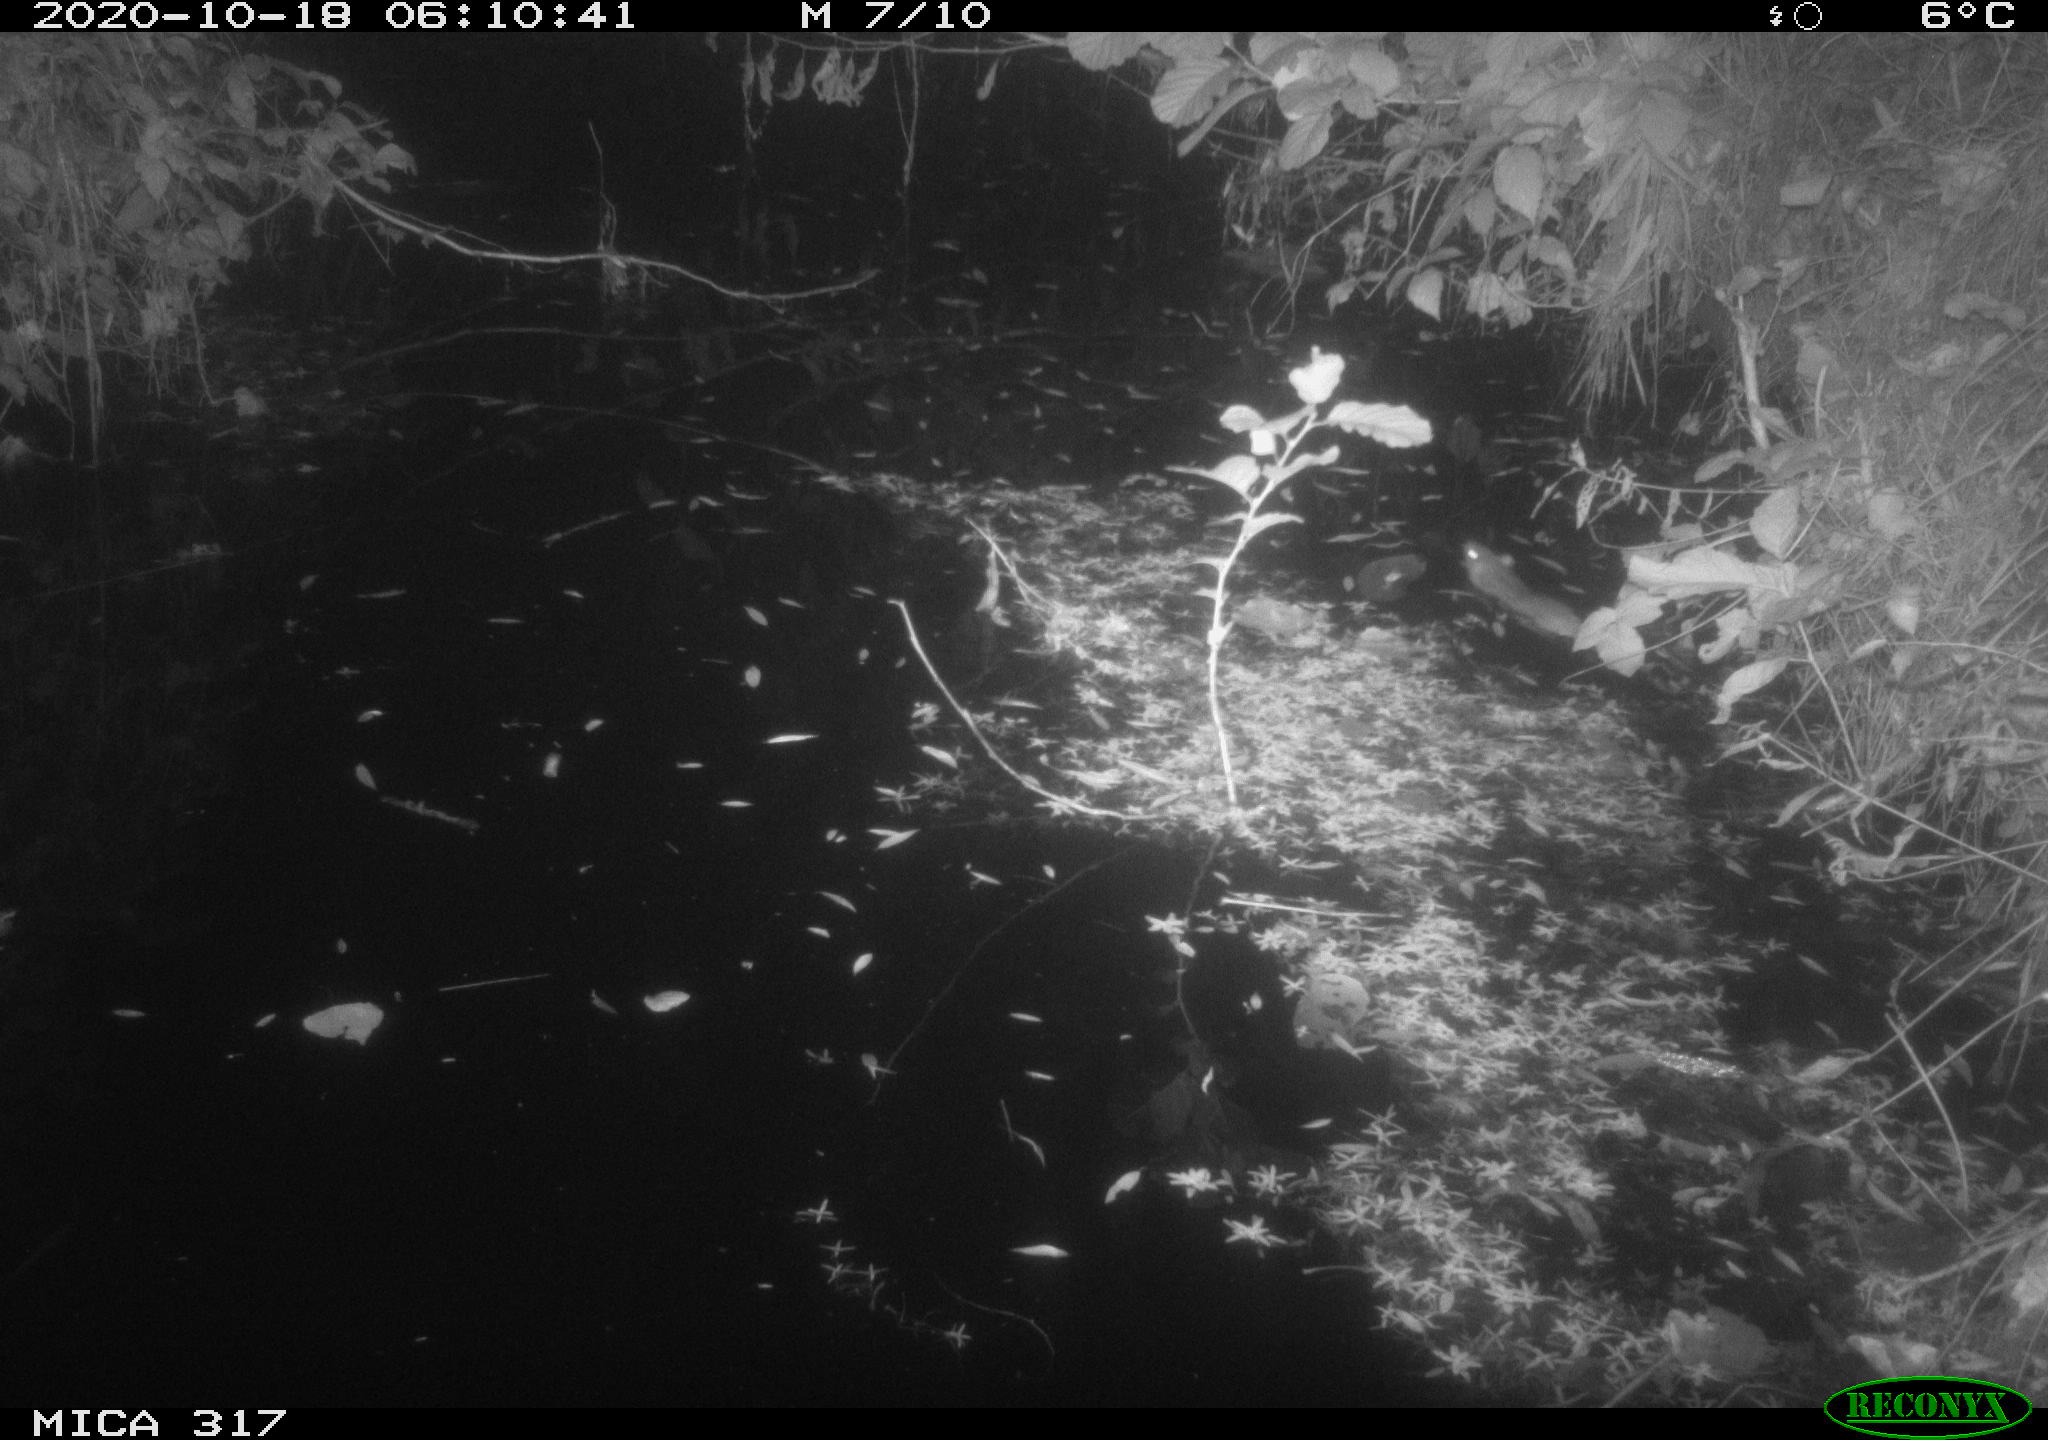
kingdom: Animalia
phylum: Chordata
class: Mammalia
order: Rodentia
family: Muridae
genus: Rattus
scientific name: Rattus norvegicus
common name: Brown rat
